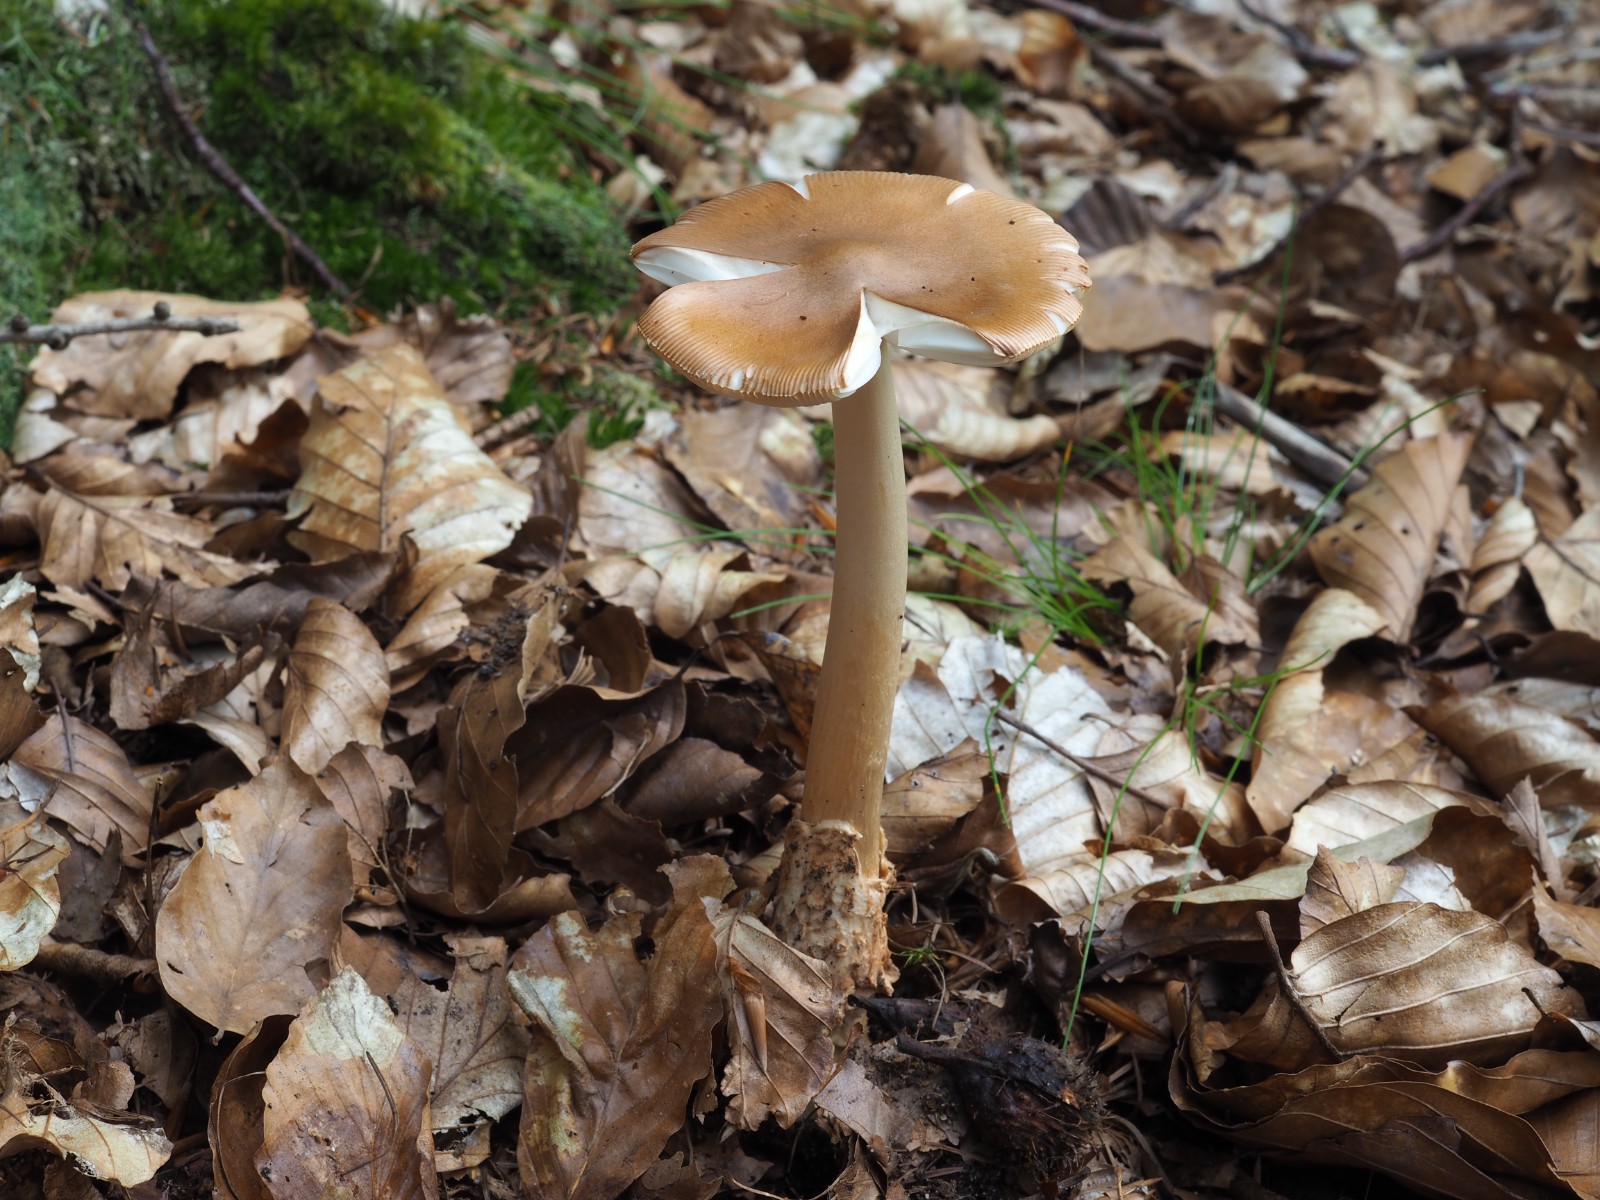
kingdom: Fungi
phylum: Basidiomycota
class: Agaricomycetes
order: Agaricales
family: Amanitaceae
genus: Amanita
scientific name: Amanita fulva
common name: brun kam-fluesvamp
